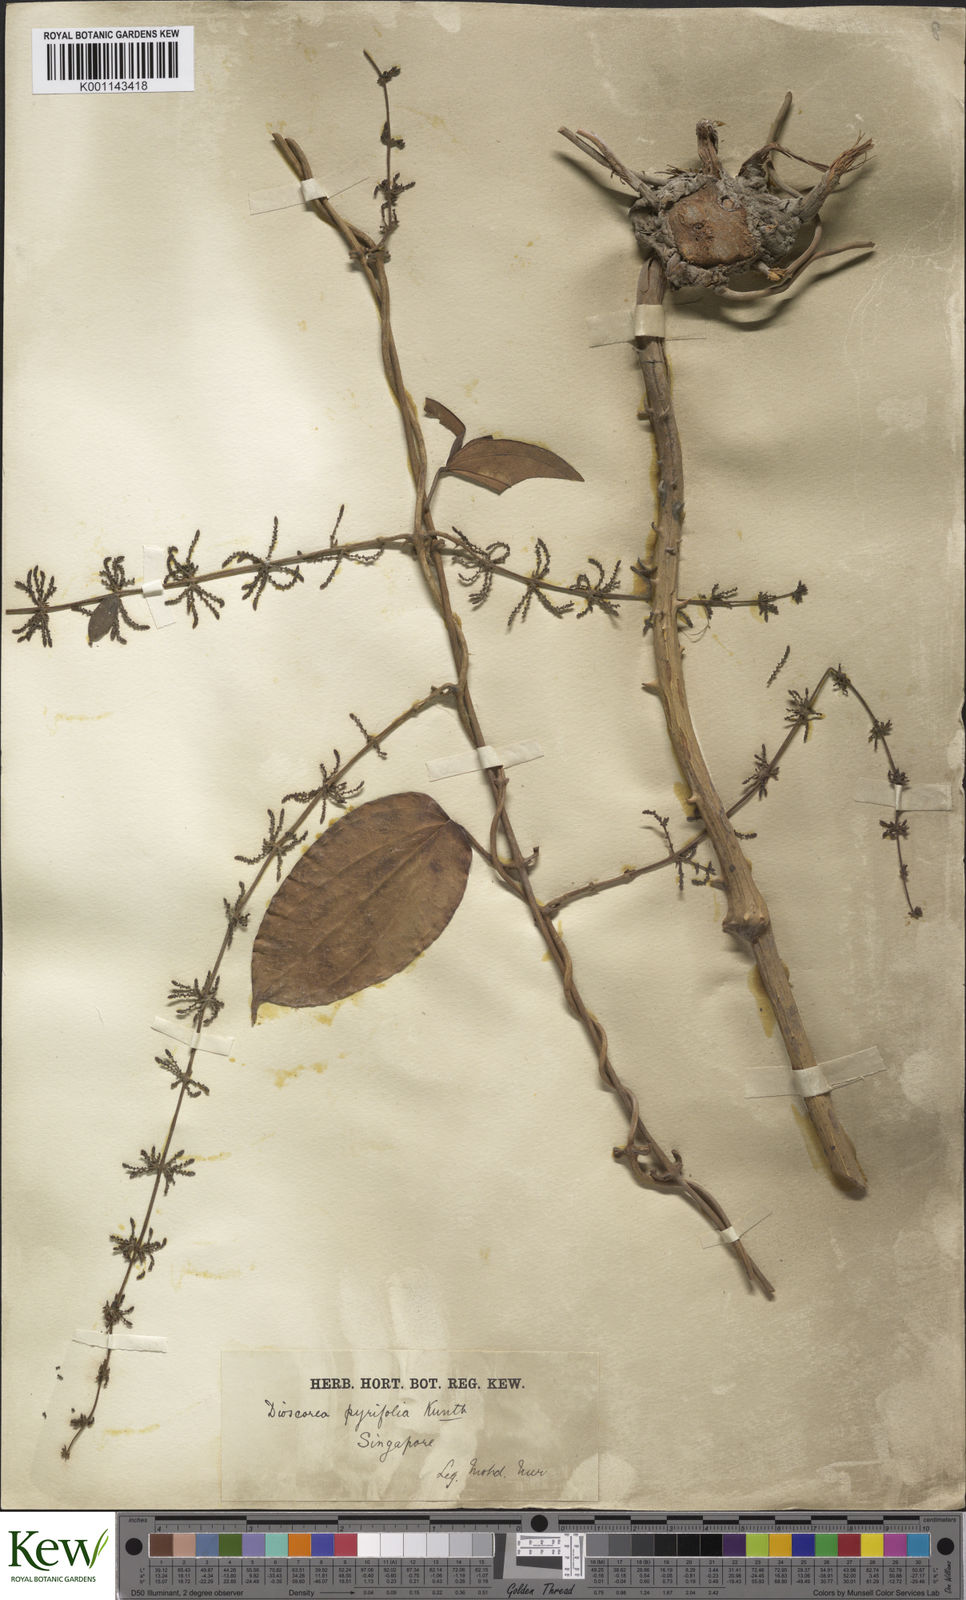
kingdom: Plantae
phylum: Tracheophyta
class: Liliopsida
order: Dioscoreales
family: Dioscoreaceae
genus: Dioscorea
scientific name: Dioscorea pyrifolia
